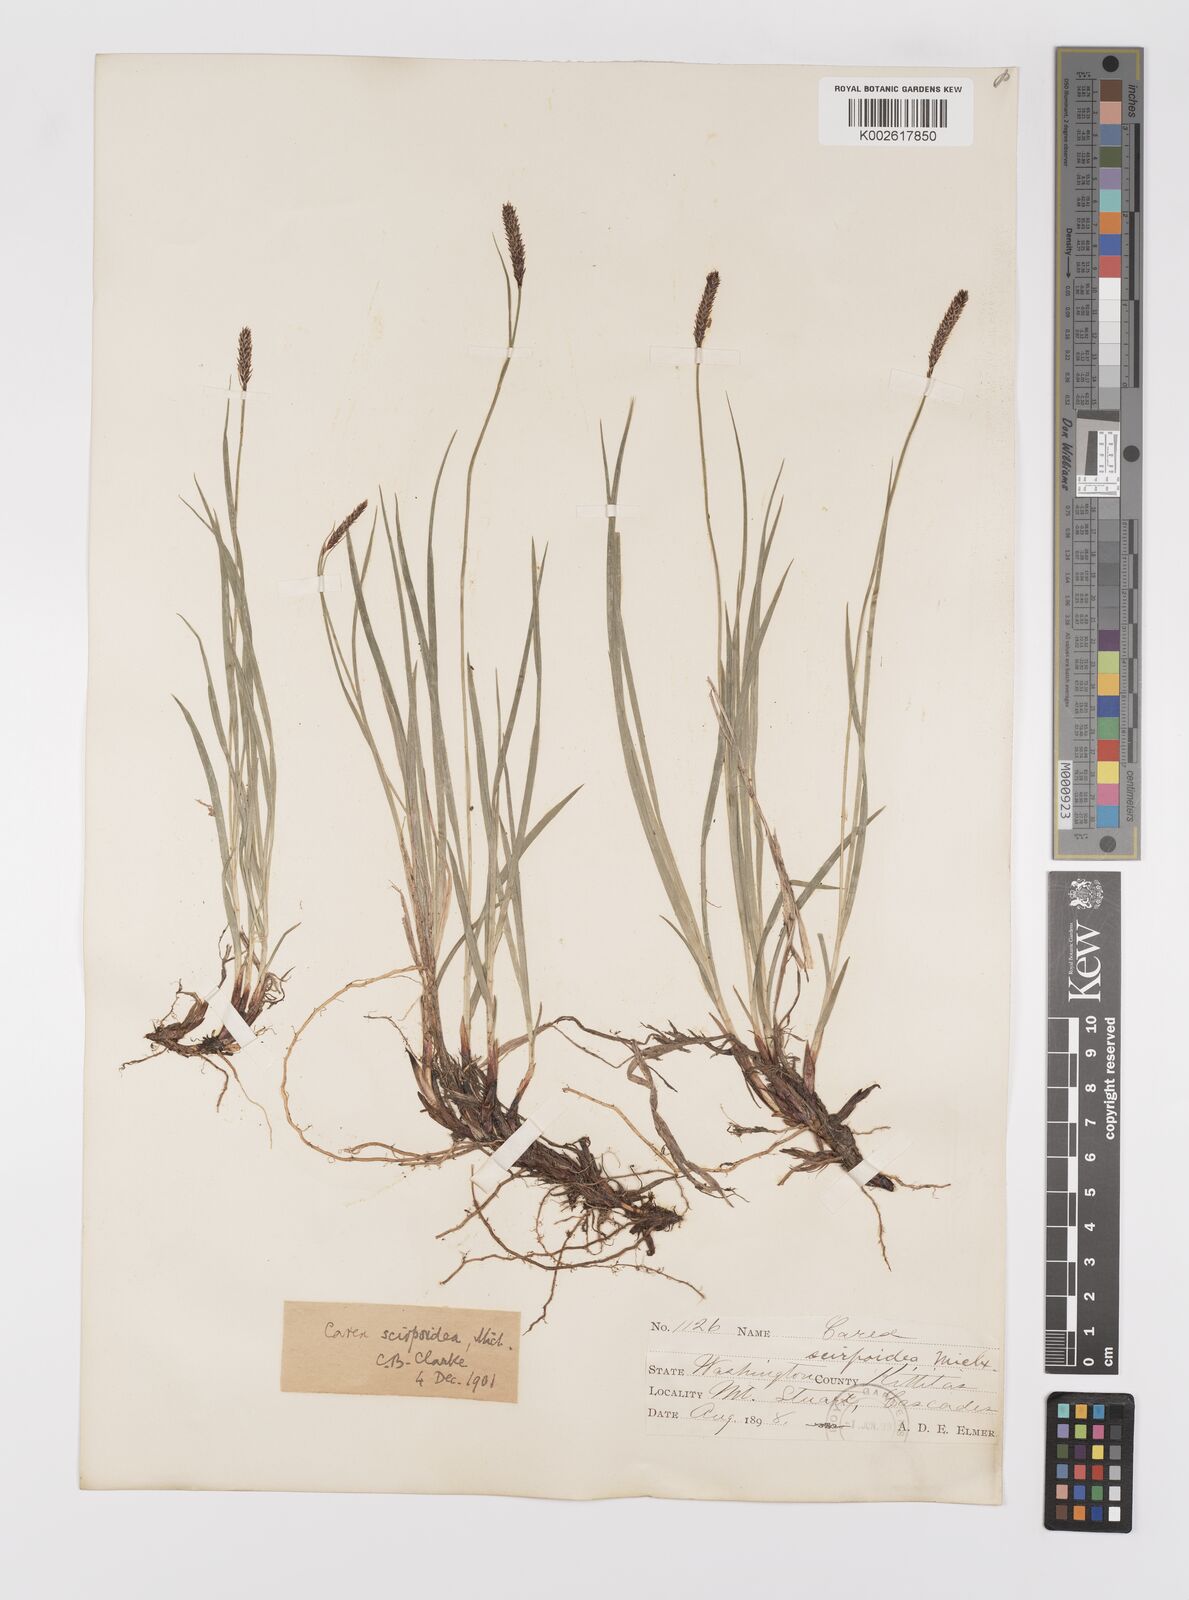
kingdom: Plantae
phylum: Tracheophyta
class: Liliopsida
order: Poales
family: Cyperaceae
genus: Carex
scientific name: Carex scirpoidea
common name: Canada single-spike sedge
